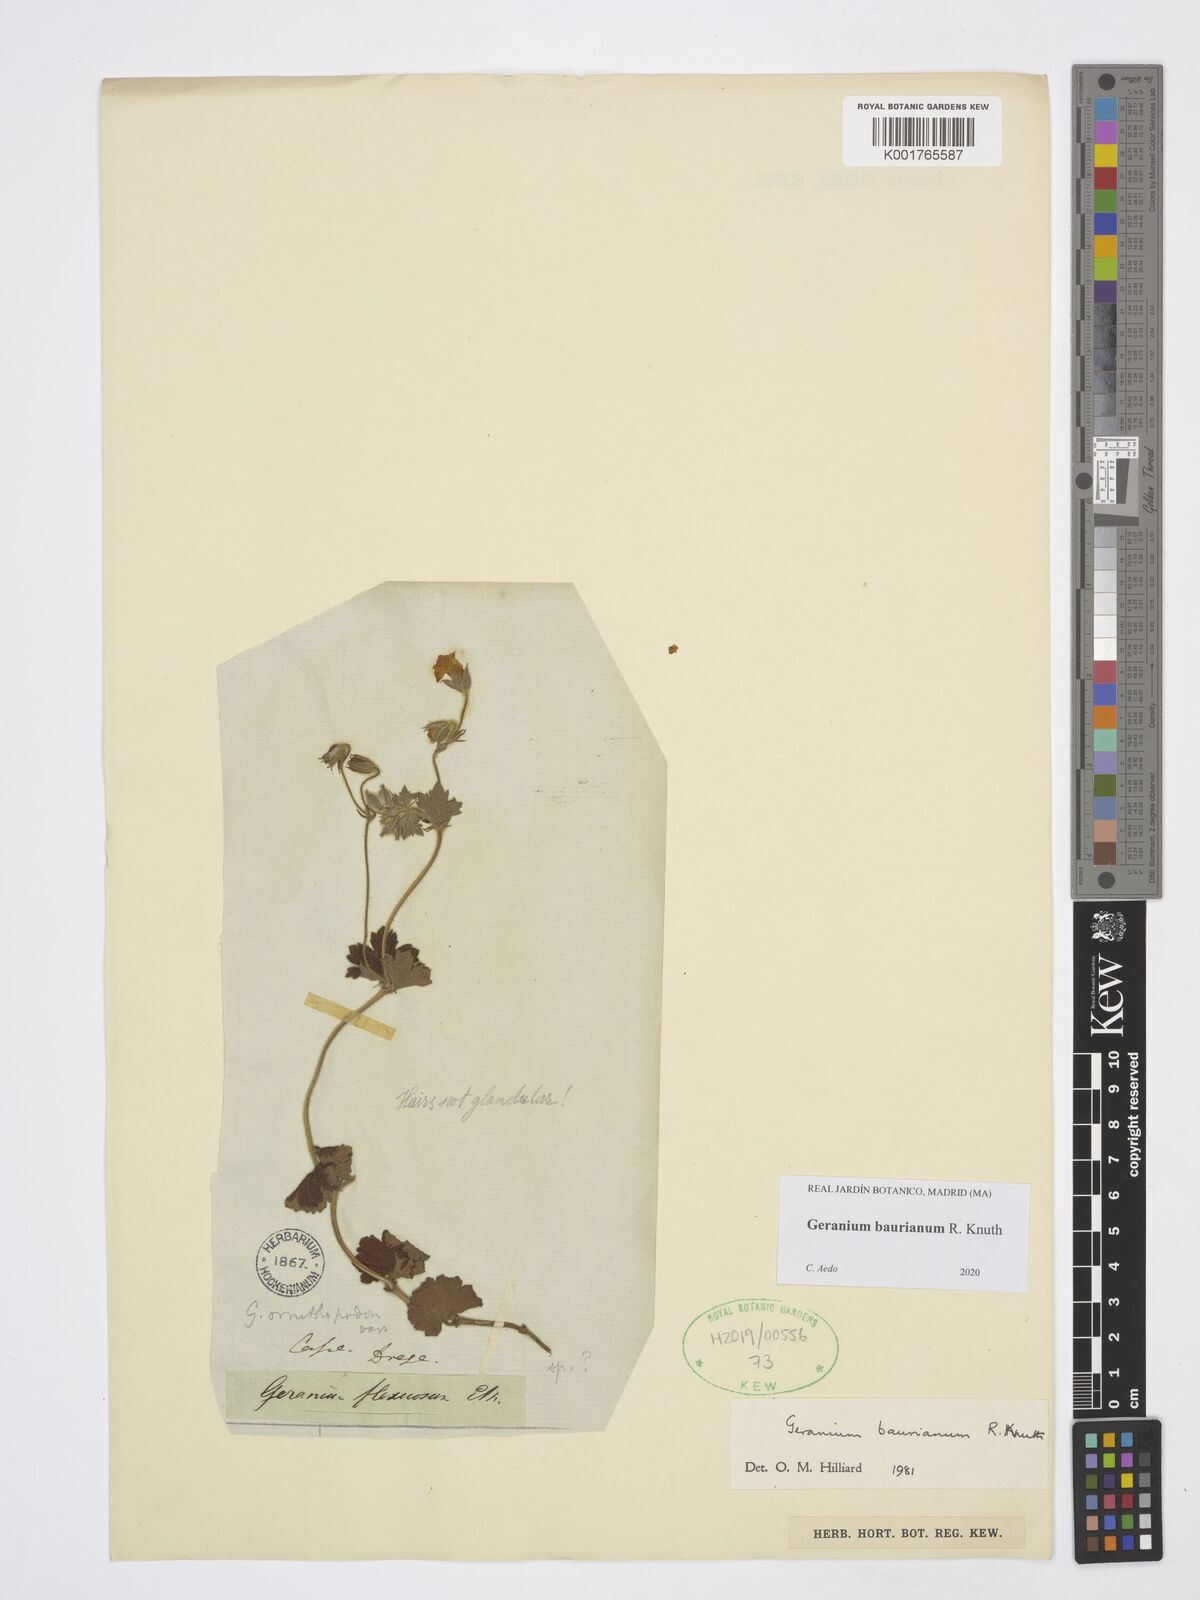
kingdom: Plantae
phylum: Tracheophyta
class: Magnoliopsida
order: Geraniales
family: Geraniaceae
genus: Geranium
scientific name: Geranium baurianum
